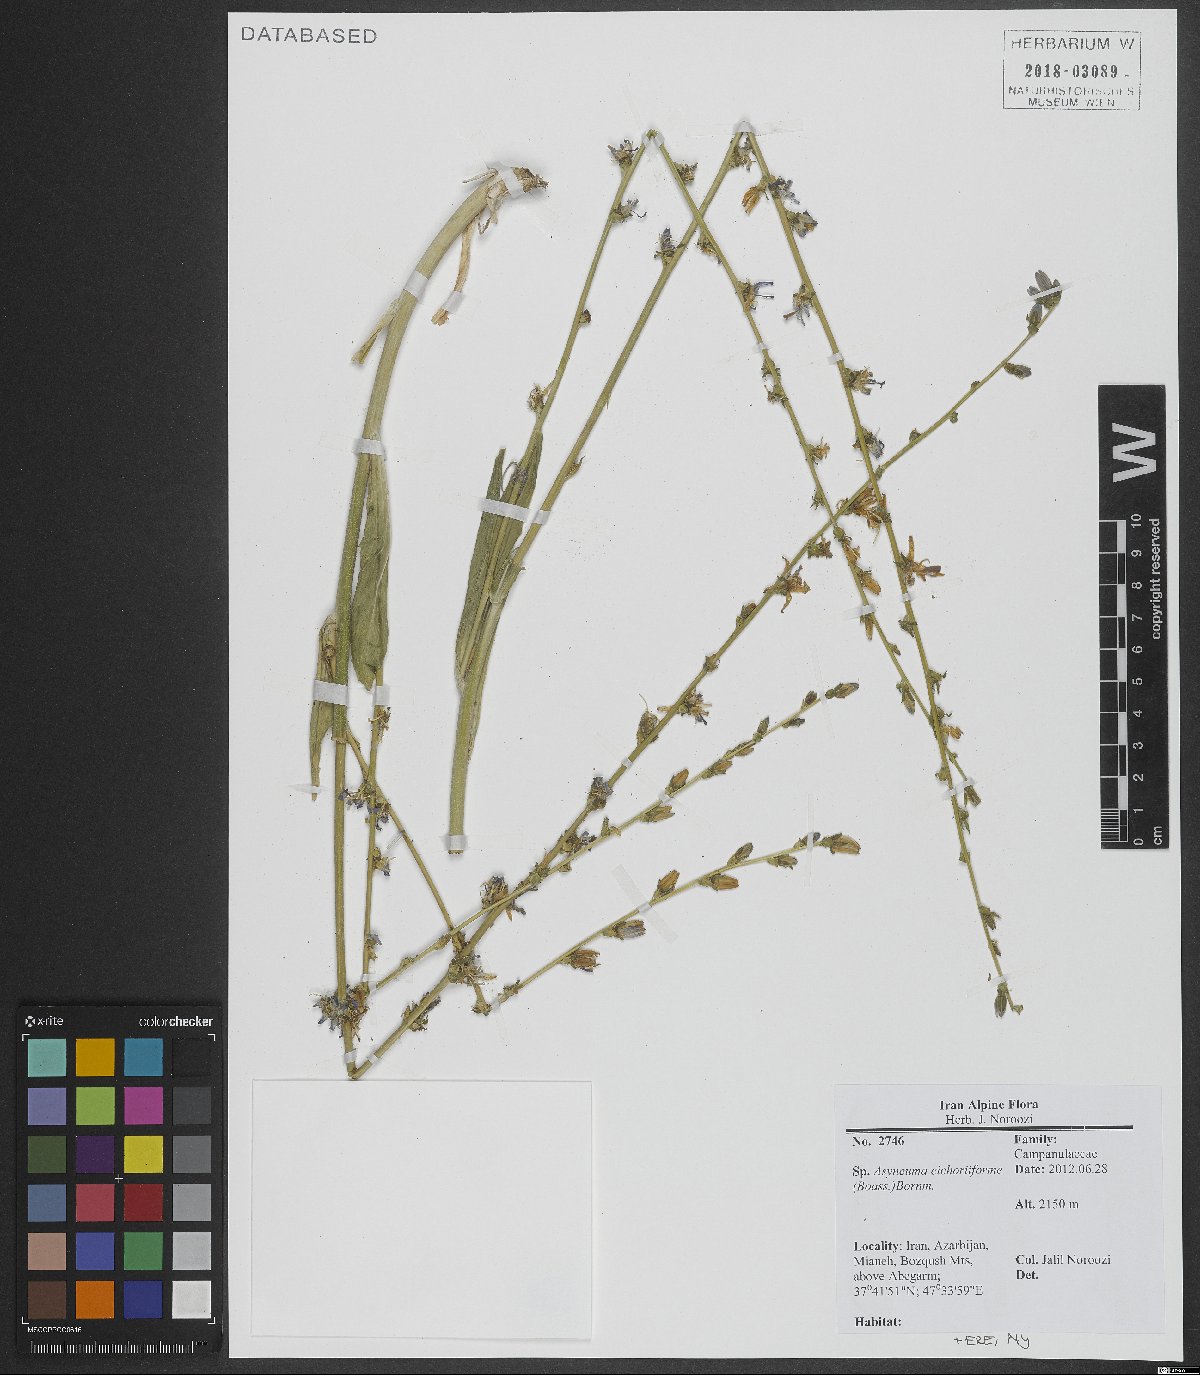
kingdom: Plantae
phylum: Tracheophyta
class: Magnoliopsida
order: Asterales
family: Campanulaceae
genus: Asyneuma
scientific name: Asyneuma virgatum
